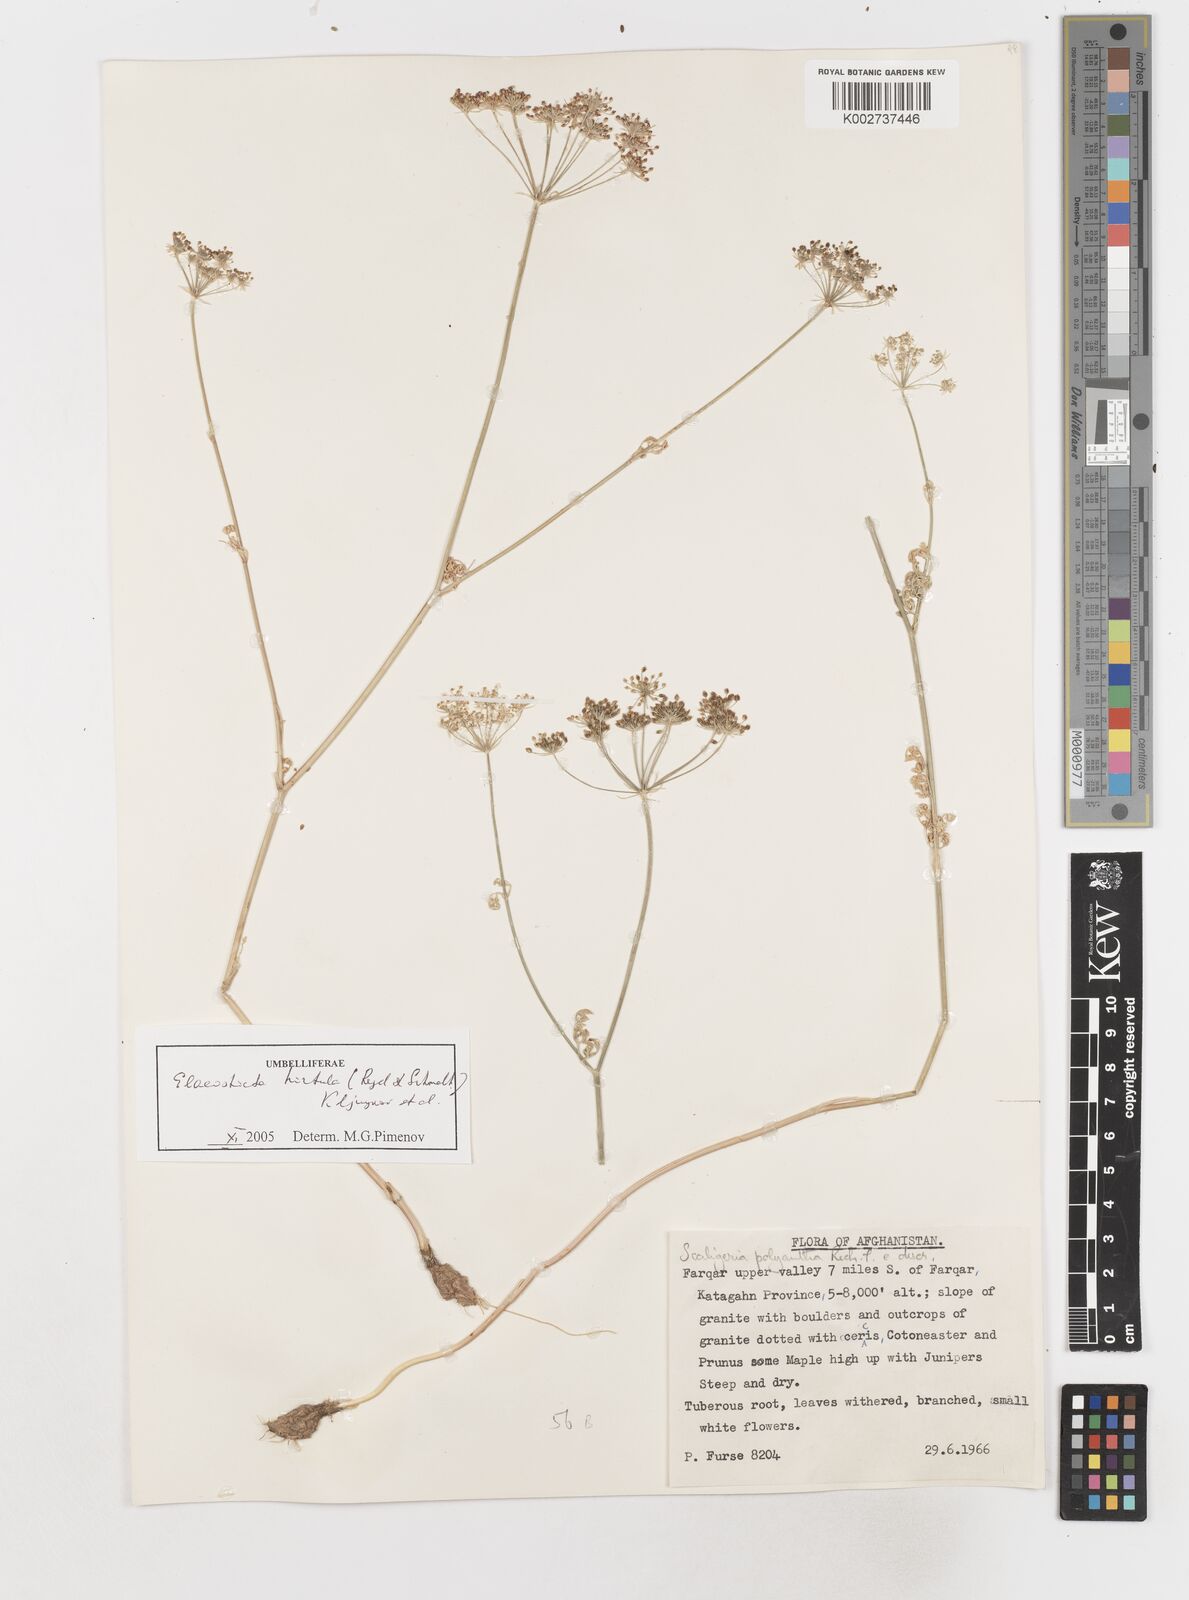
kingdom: Plantae
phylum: Tracheophyta
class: Magnoliopsida
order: Apiales
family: Apiaceae
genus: Scaligeria
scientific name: Scaligeria hirtula
